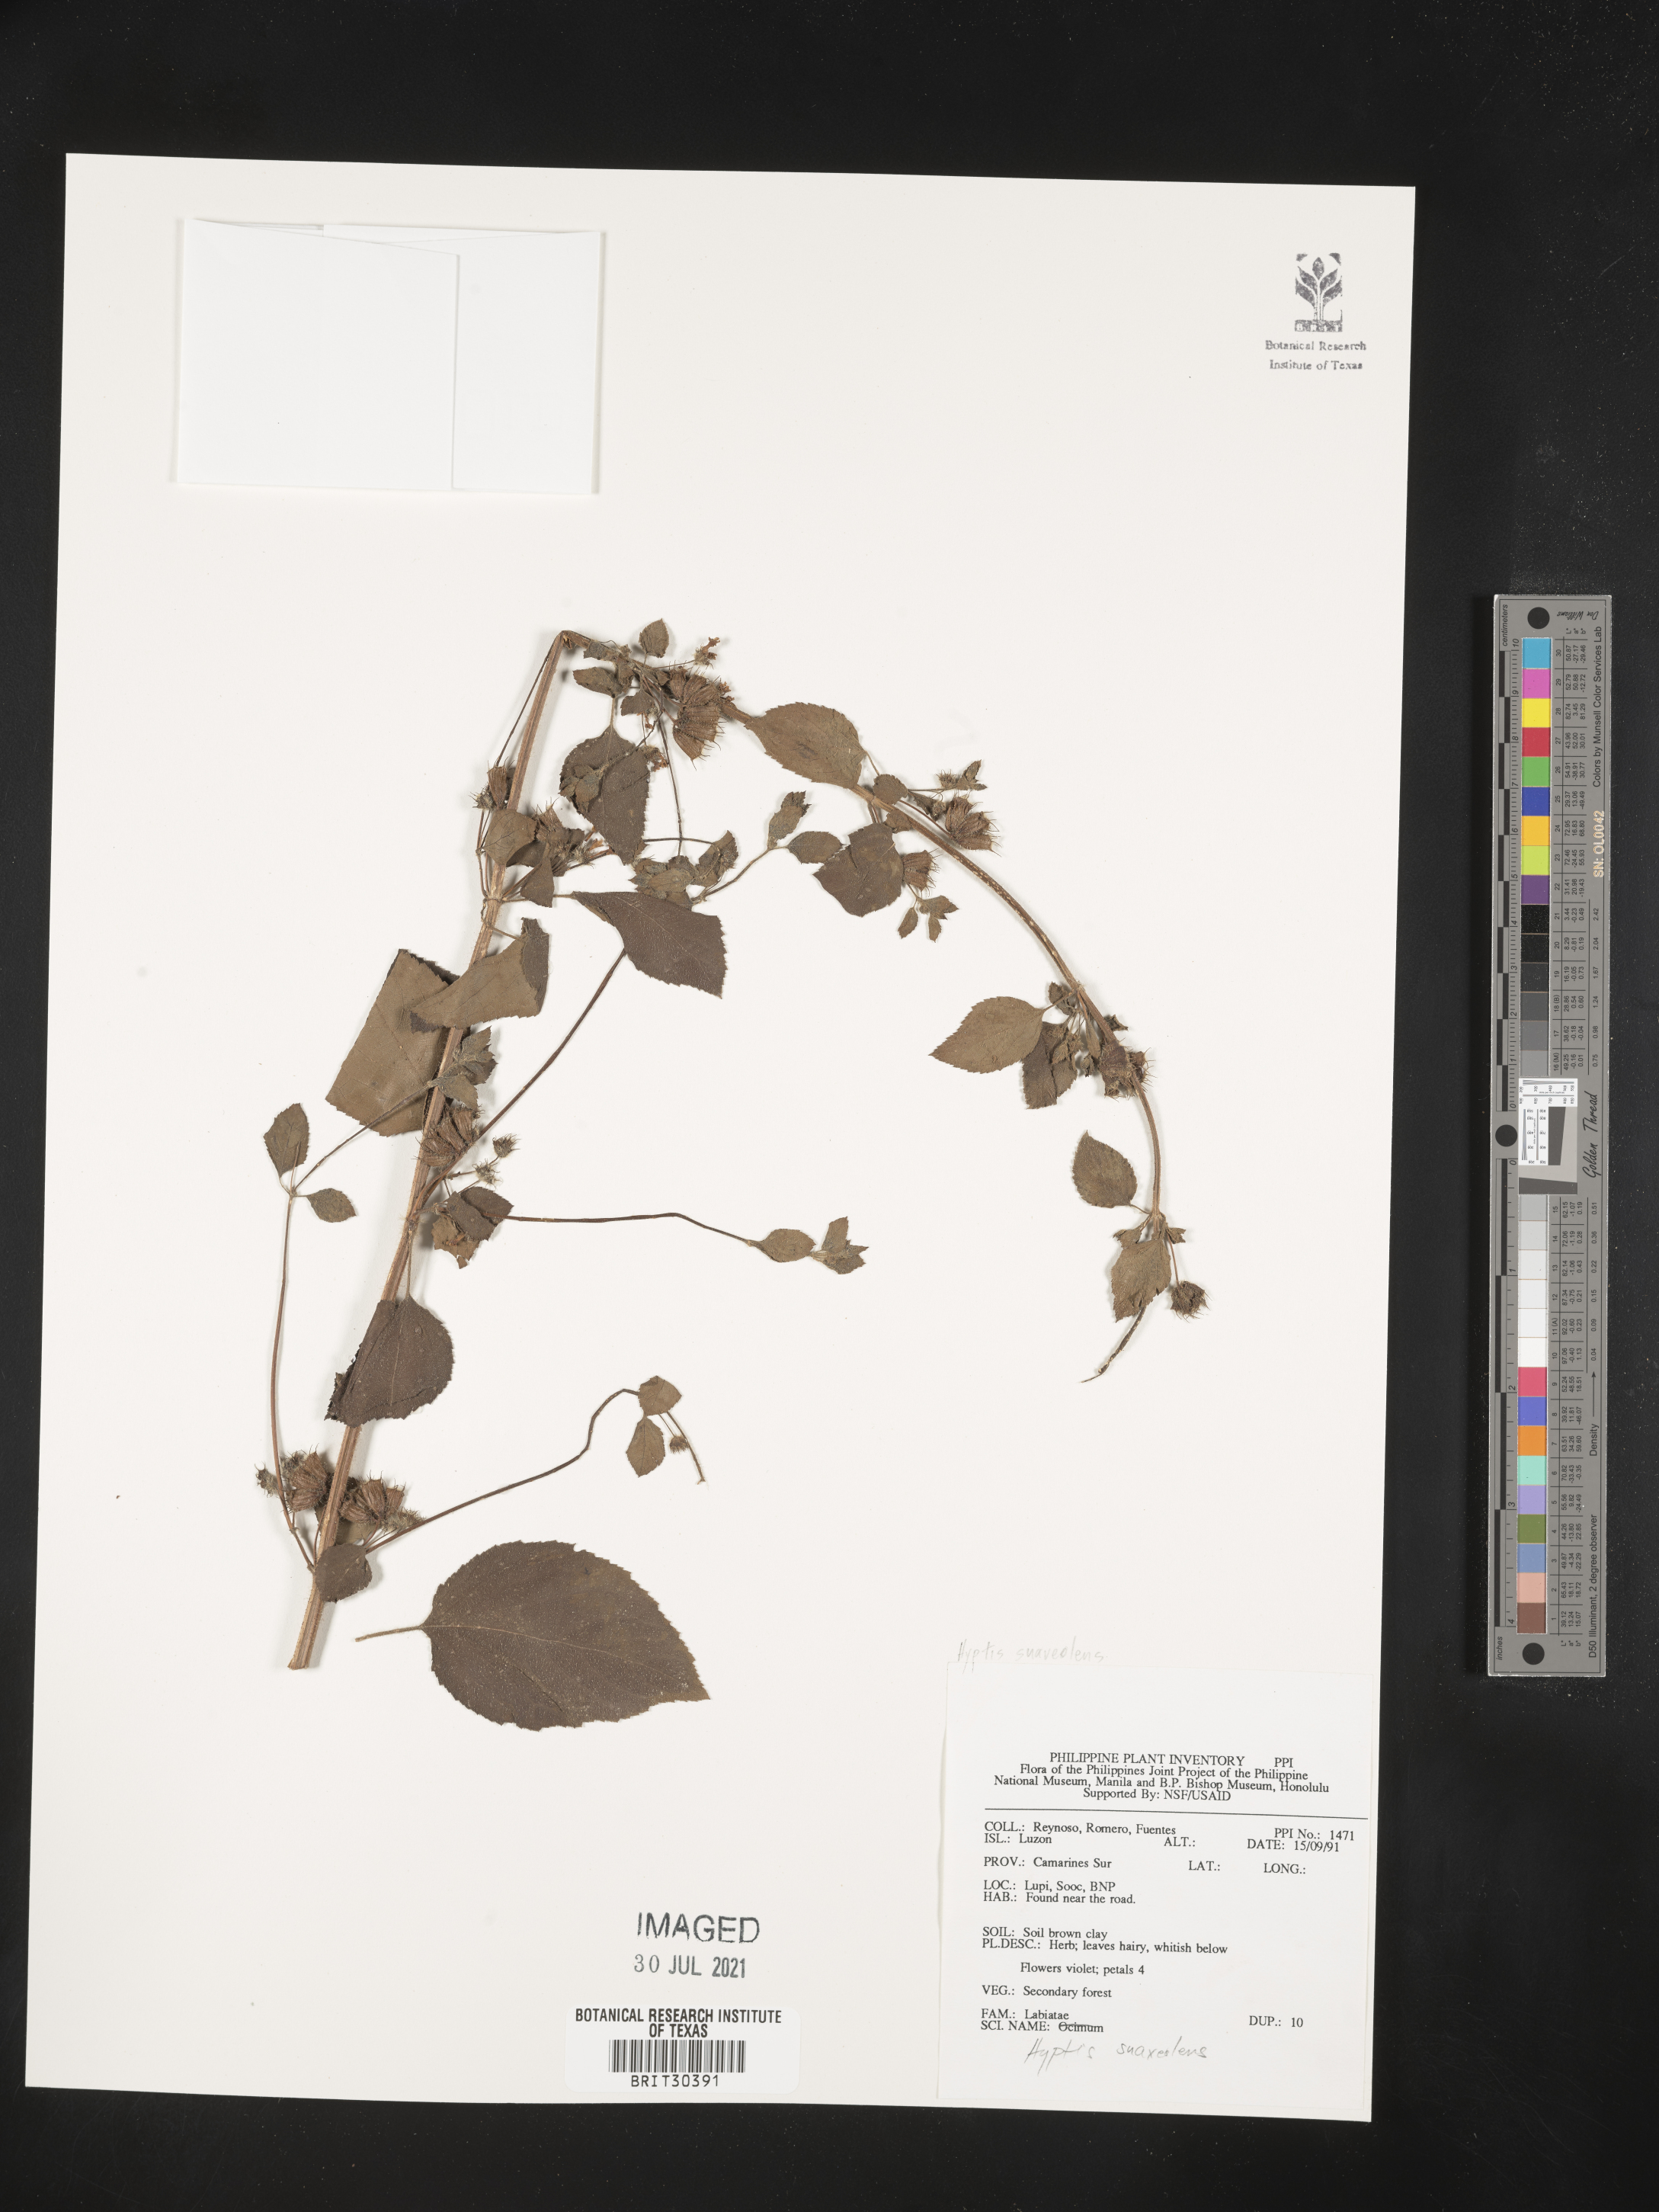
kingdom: Plantae
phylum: Tracheophyta
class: Magnoliopsida
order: Lamiales
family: Lamiaceae
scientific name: Lamiaceae
